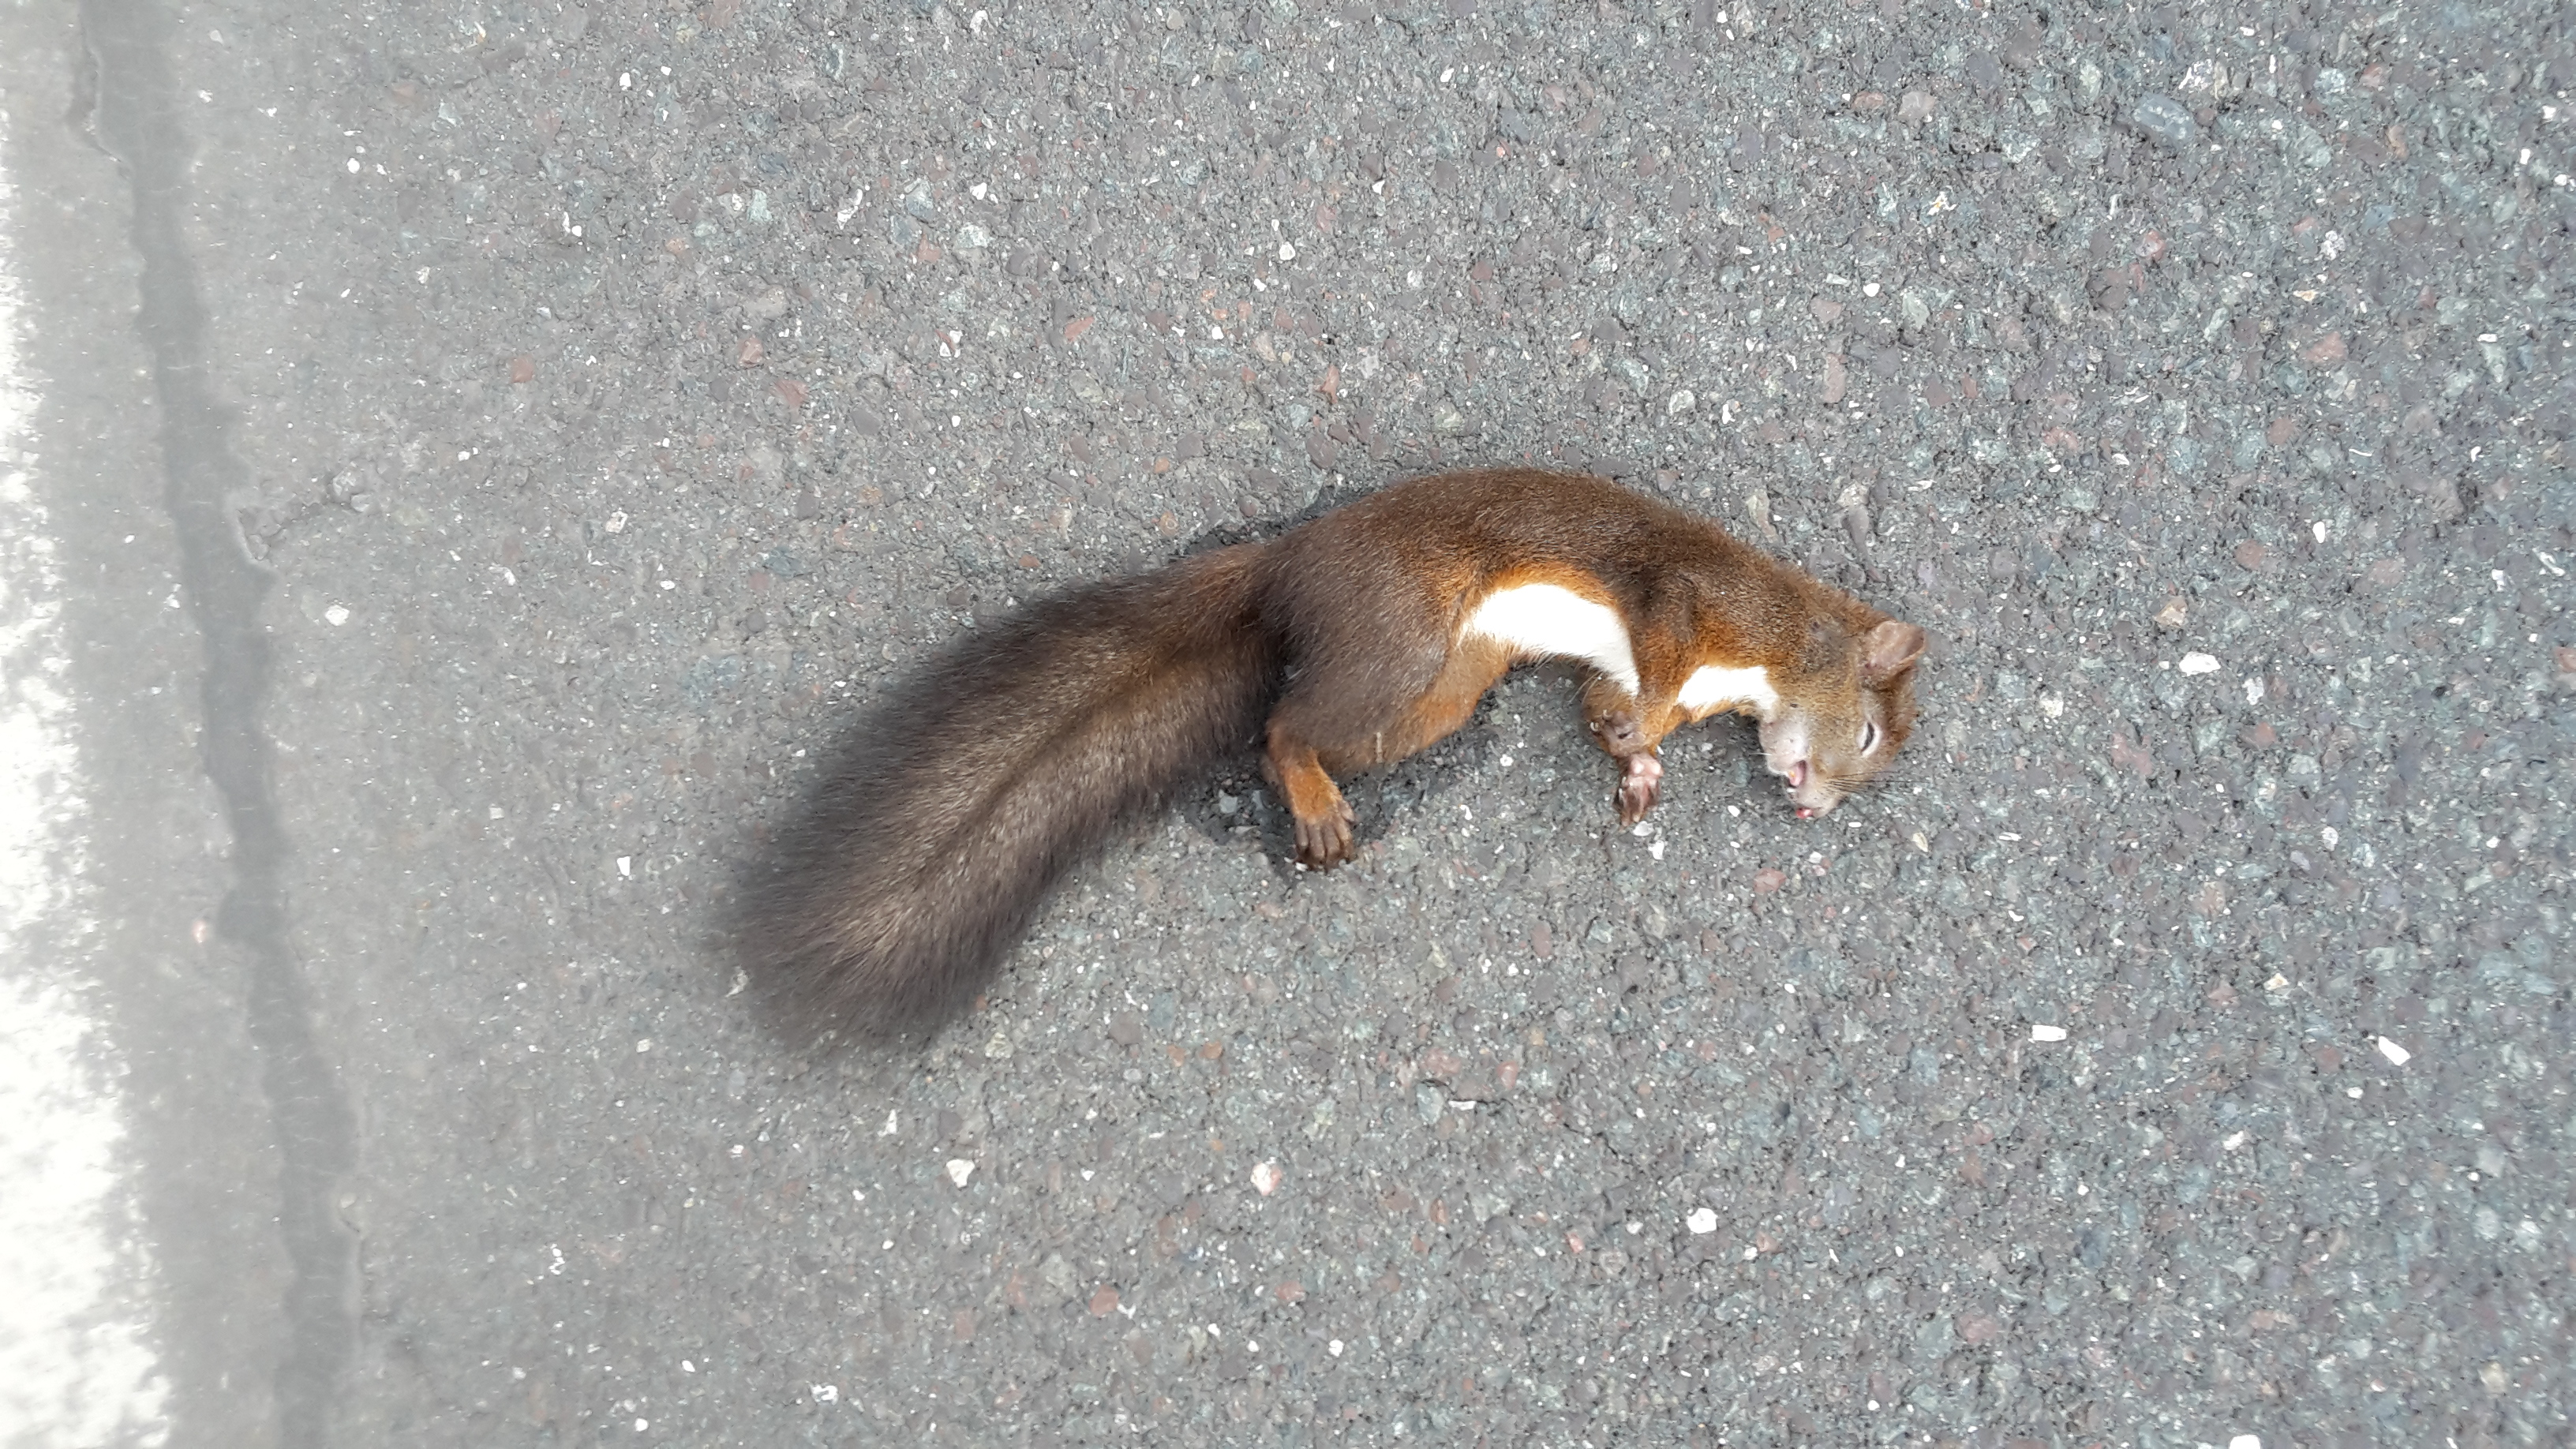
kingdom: Animalia
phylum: Chordata
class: Mammalia
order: Rodentia
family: Sciuridae
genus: Sciurus
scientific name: Sciurus vulgaris
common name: Eurasian red squirrel
